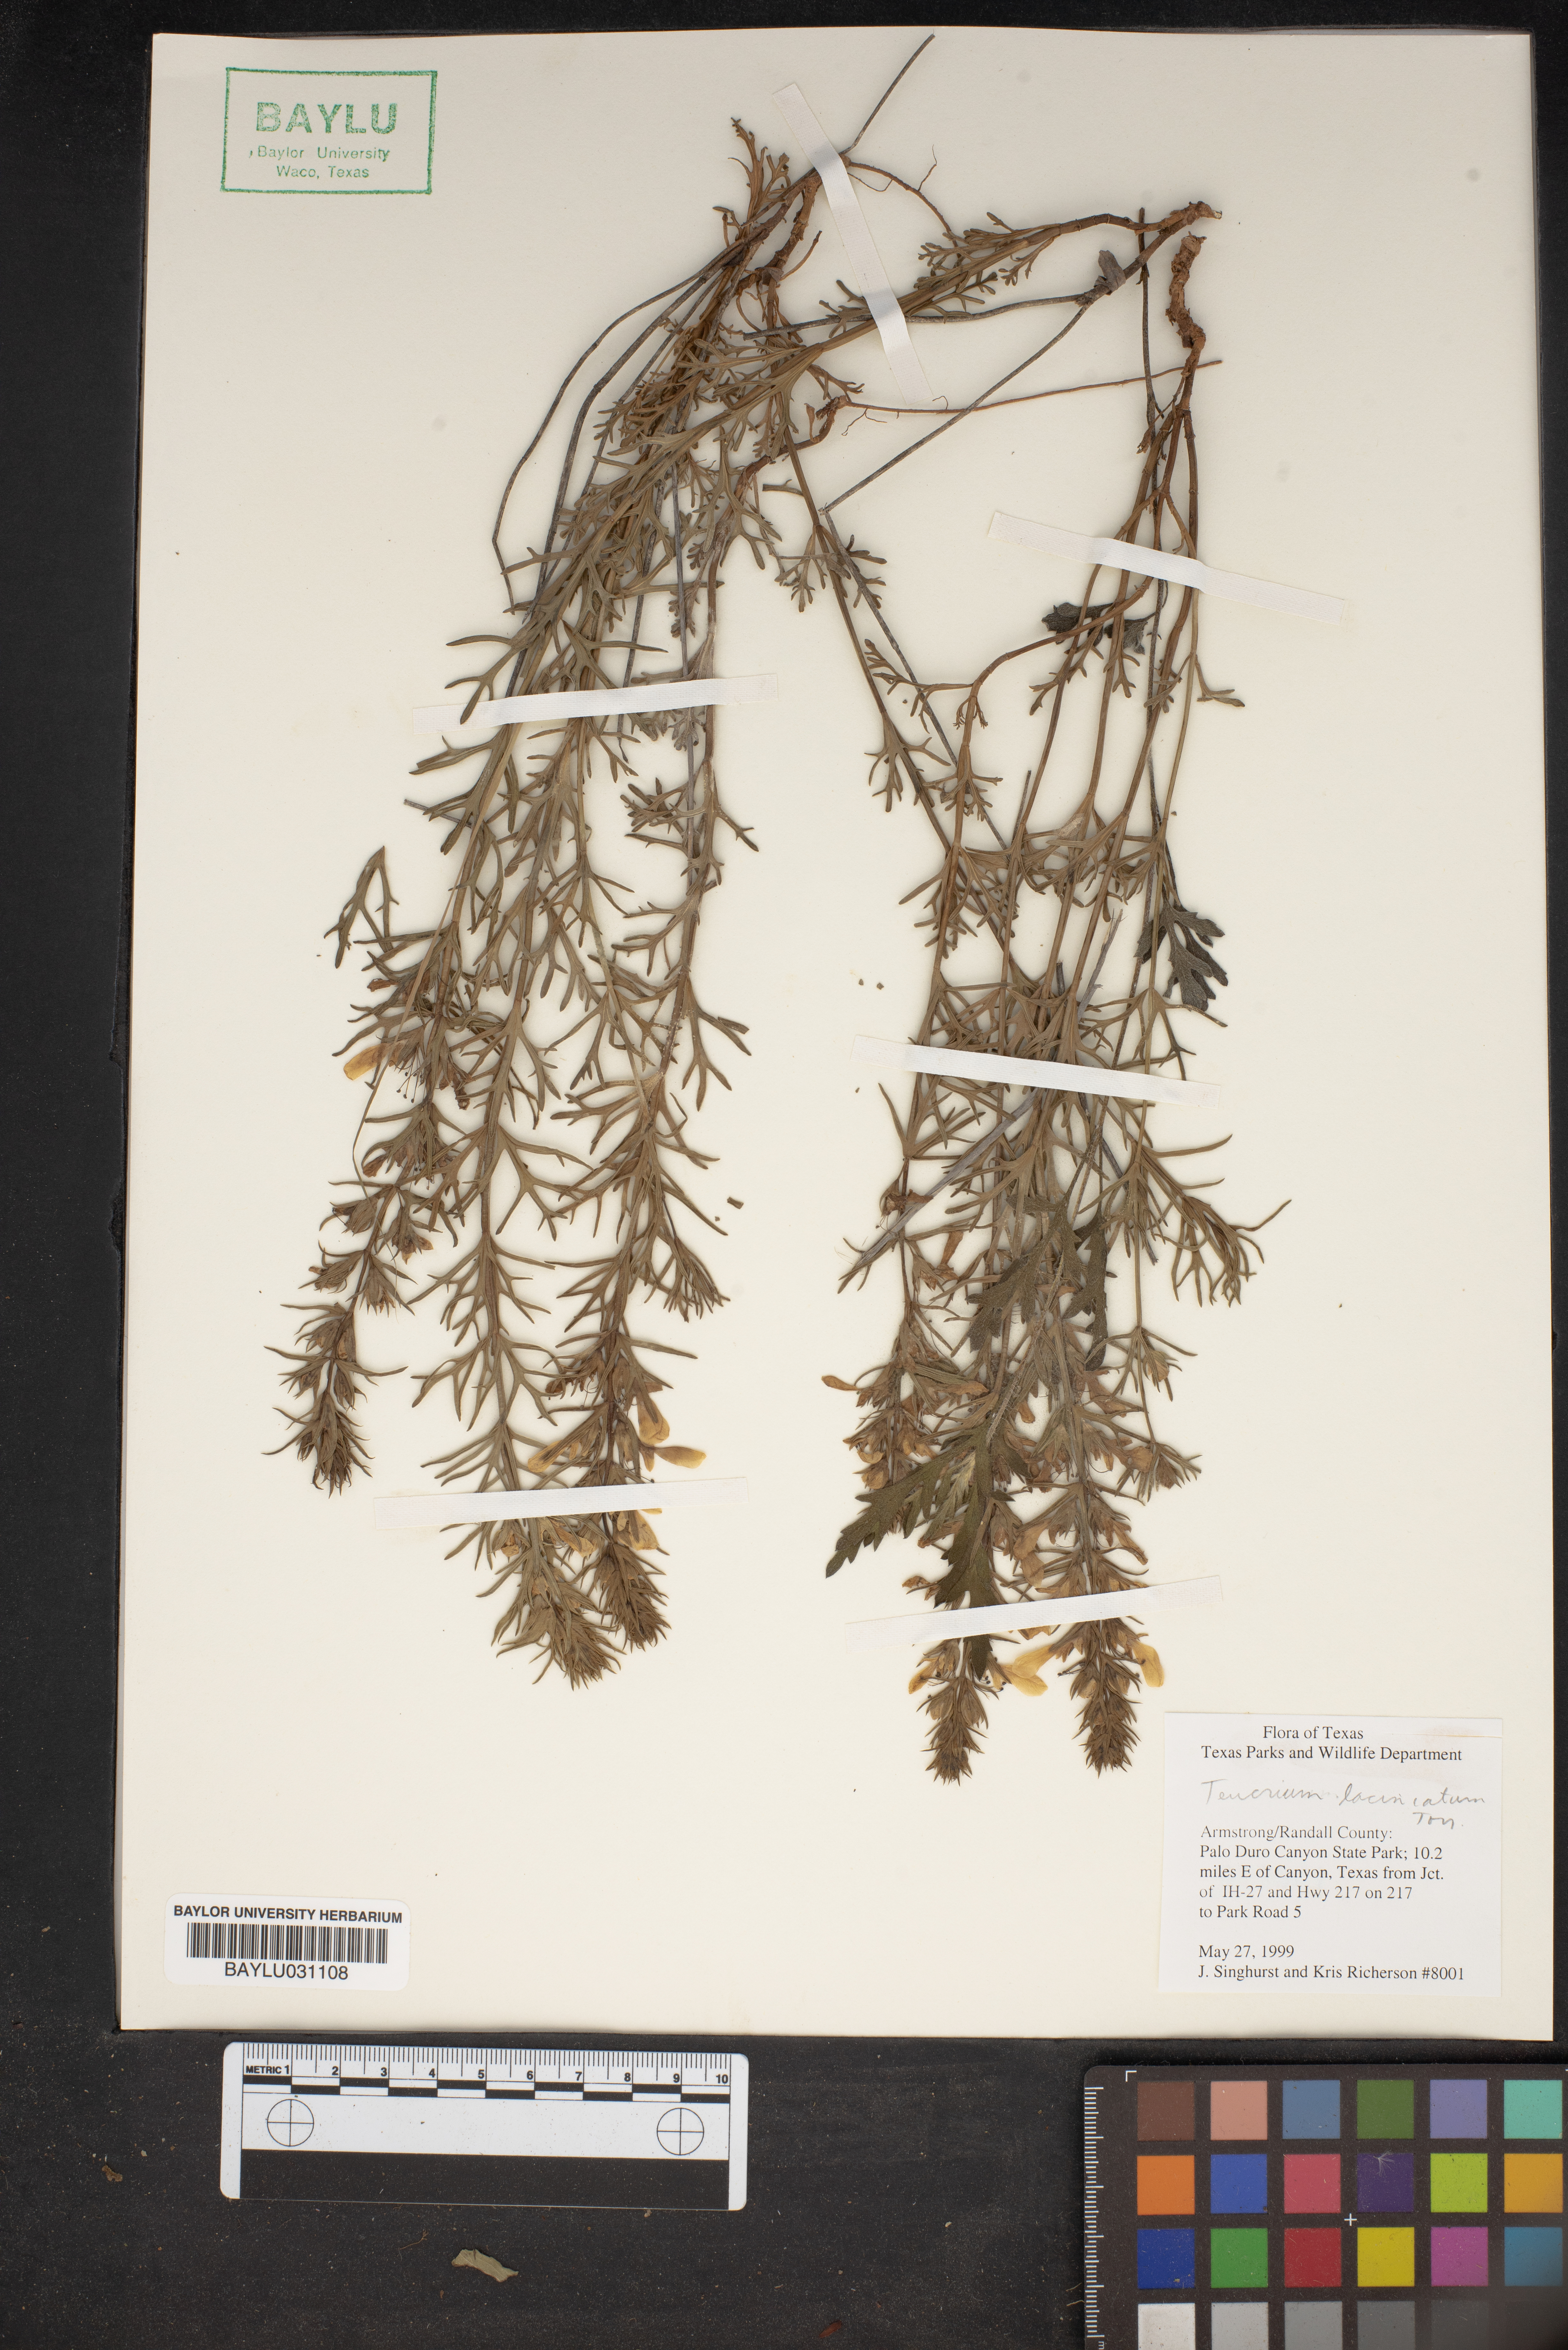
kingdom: Plantae
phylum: Tracheophyta
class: Magnoliopsida
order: Lamiales
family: Lamiaceae
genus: Teucrium
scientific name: Teucrium laciniatum
